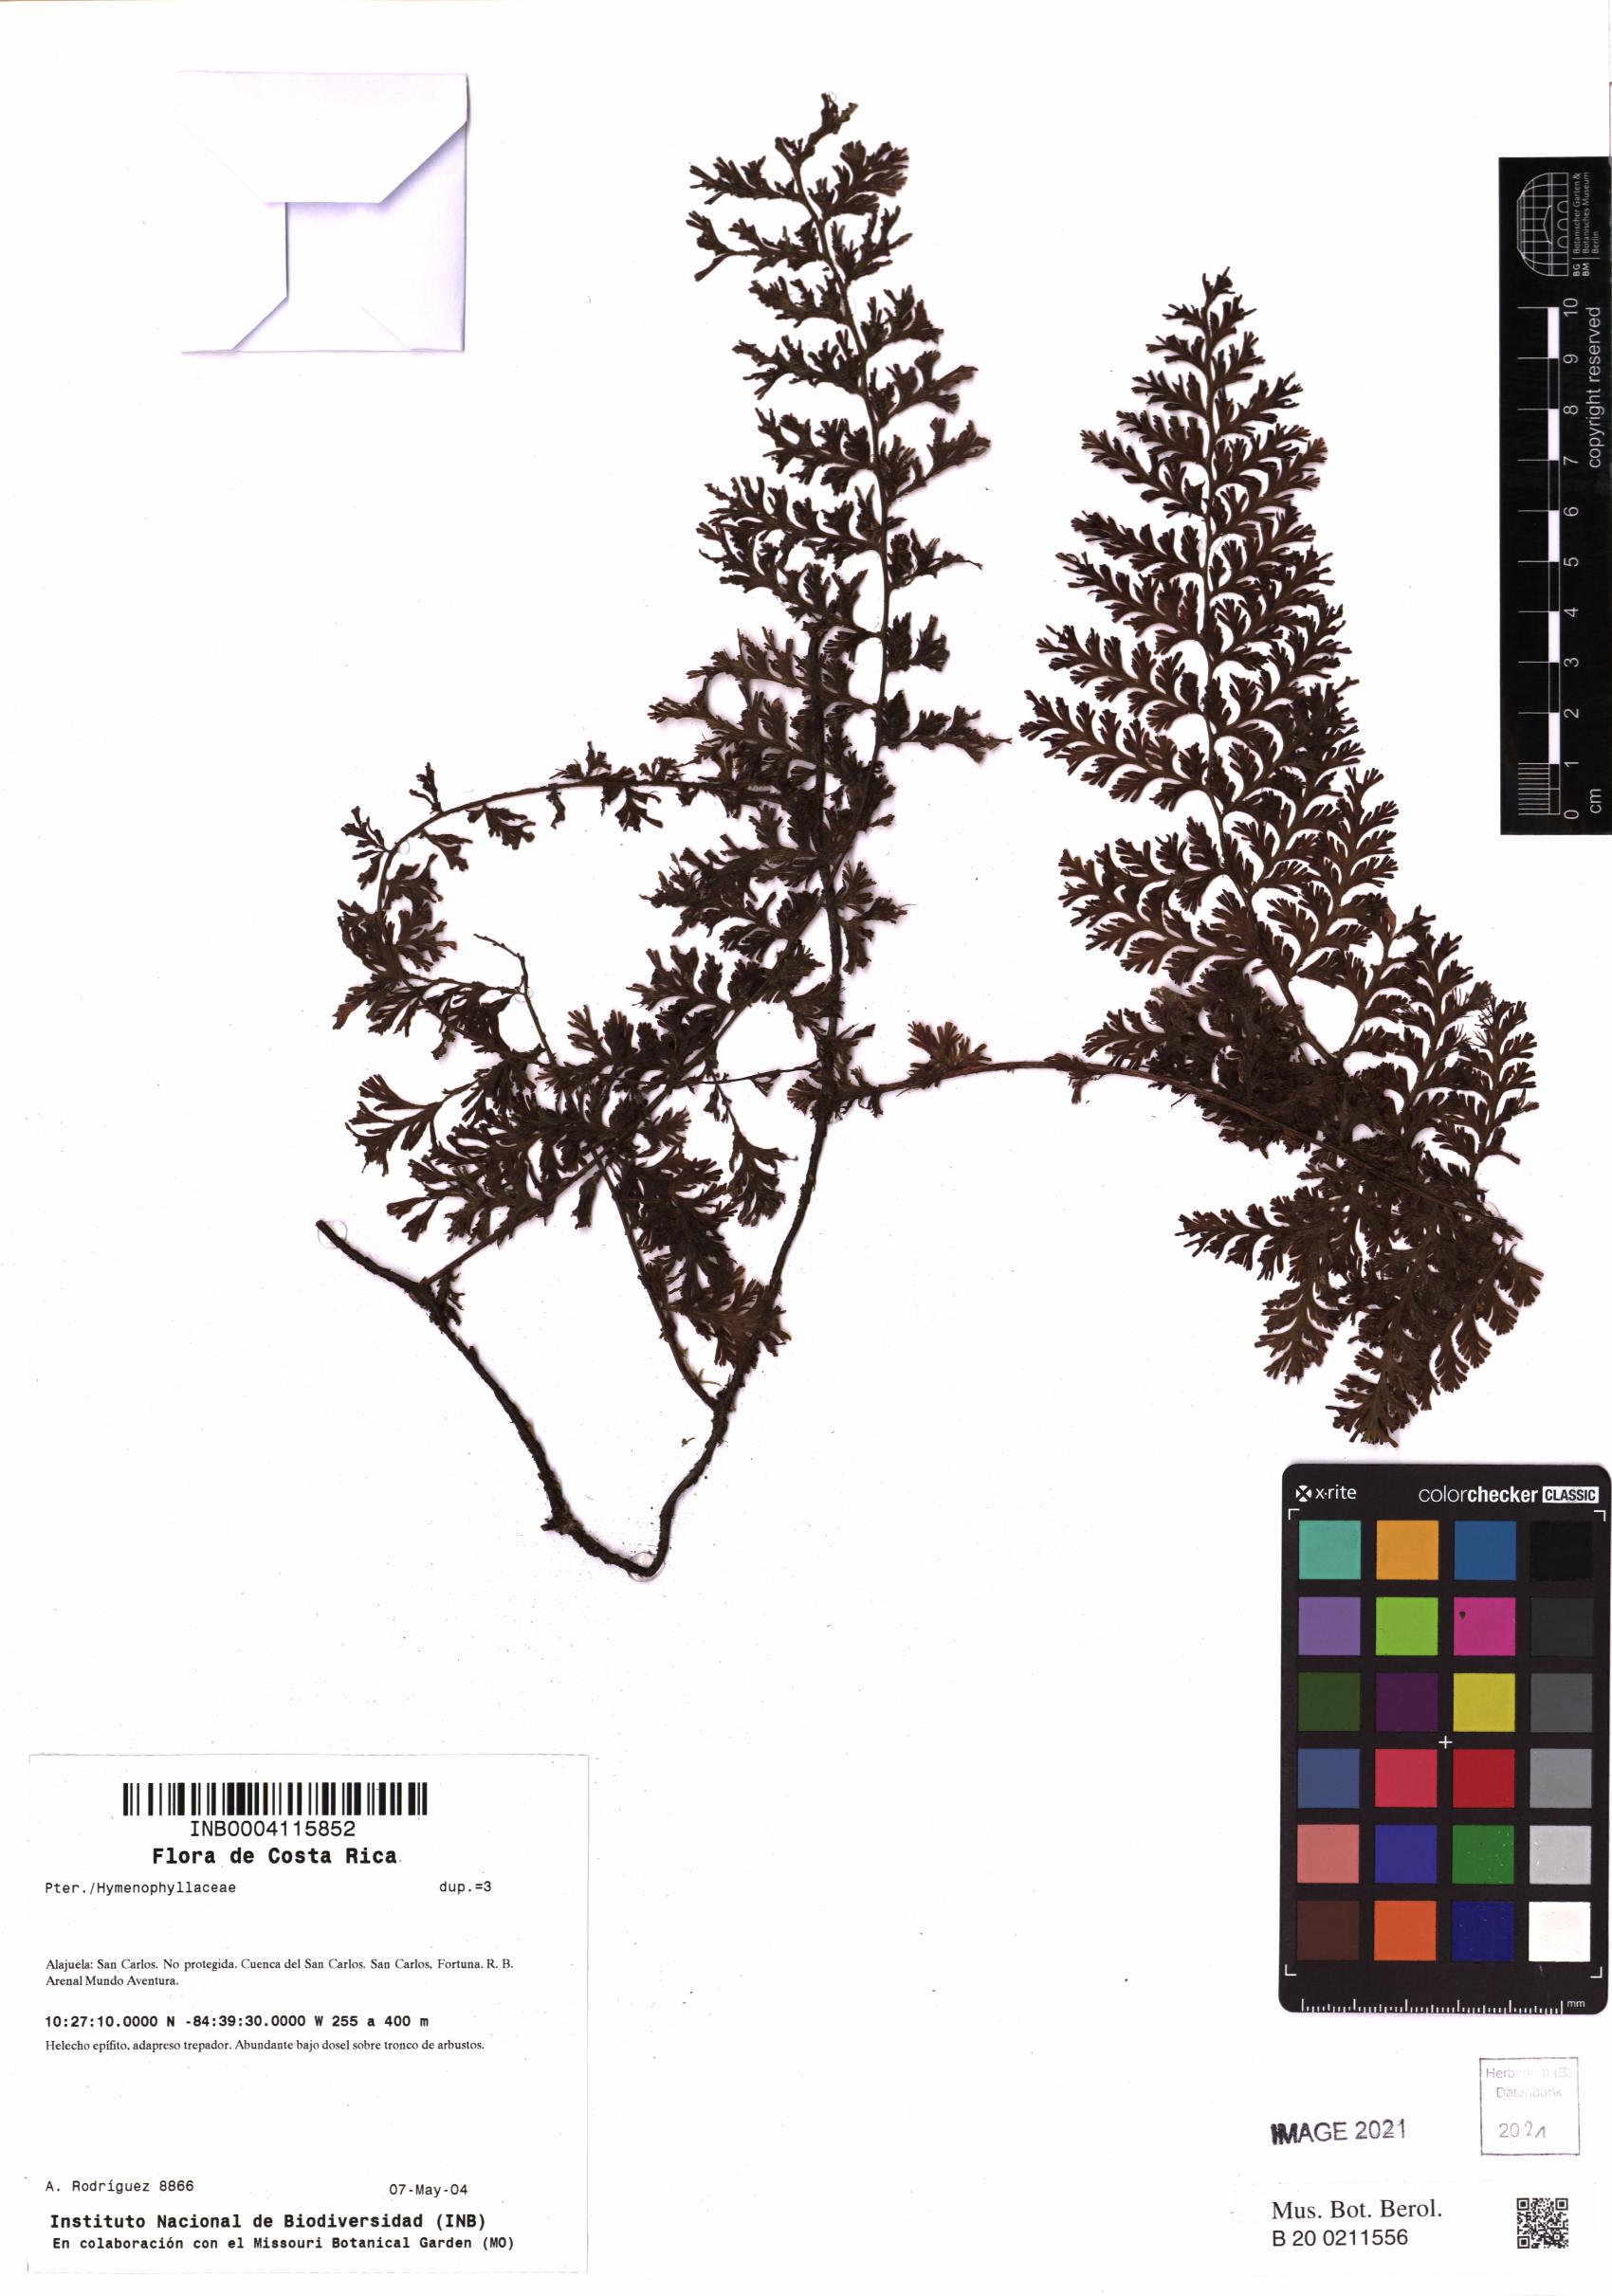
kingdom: Plantae
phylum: Tracheophyta
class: Polypodiopsida
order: Hymenophyllales
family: Hymenophyllaceae
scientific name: Hymenophyllaceae
